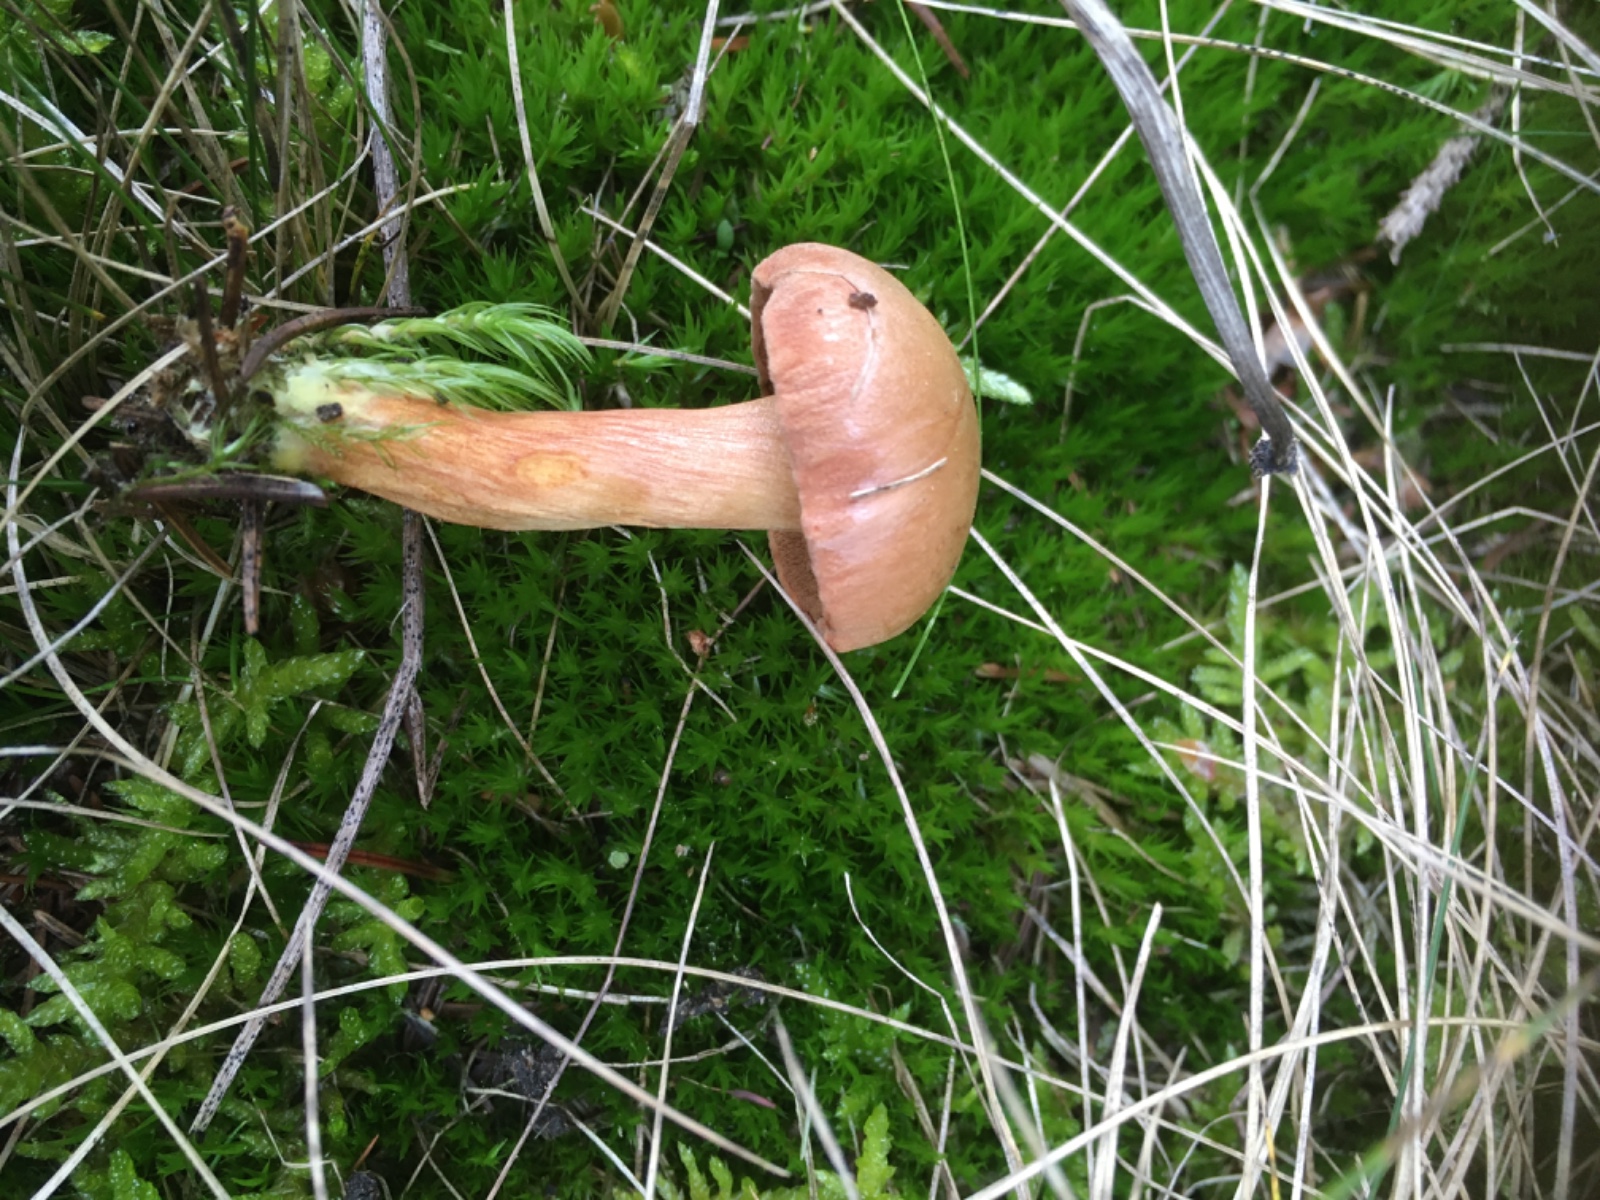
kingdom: Fungi
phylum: Basidiomycota
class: Agaricomycetes
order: Boletales
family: Boletaceae
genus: Chalciporus
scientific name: Chalciporus piperatus
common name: peberrørhat
